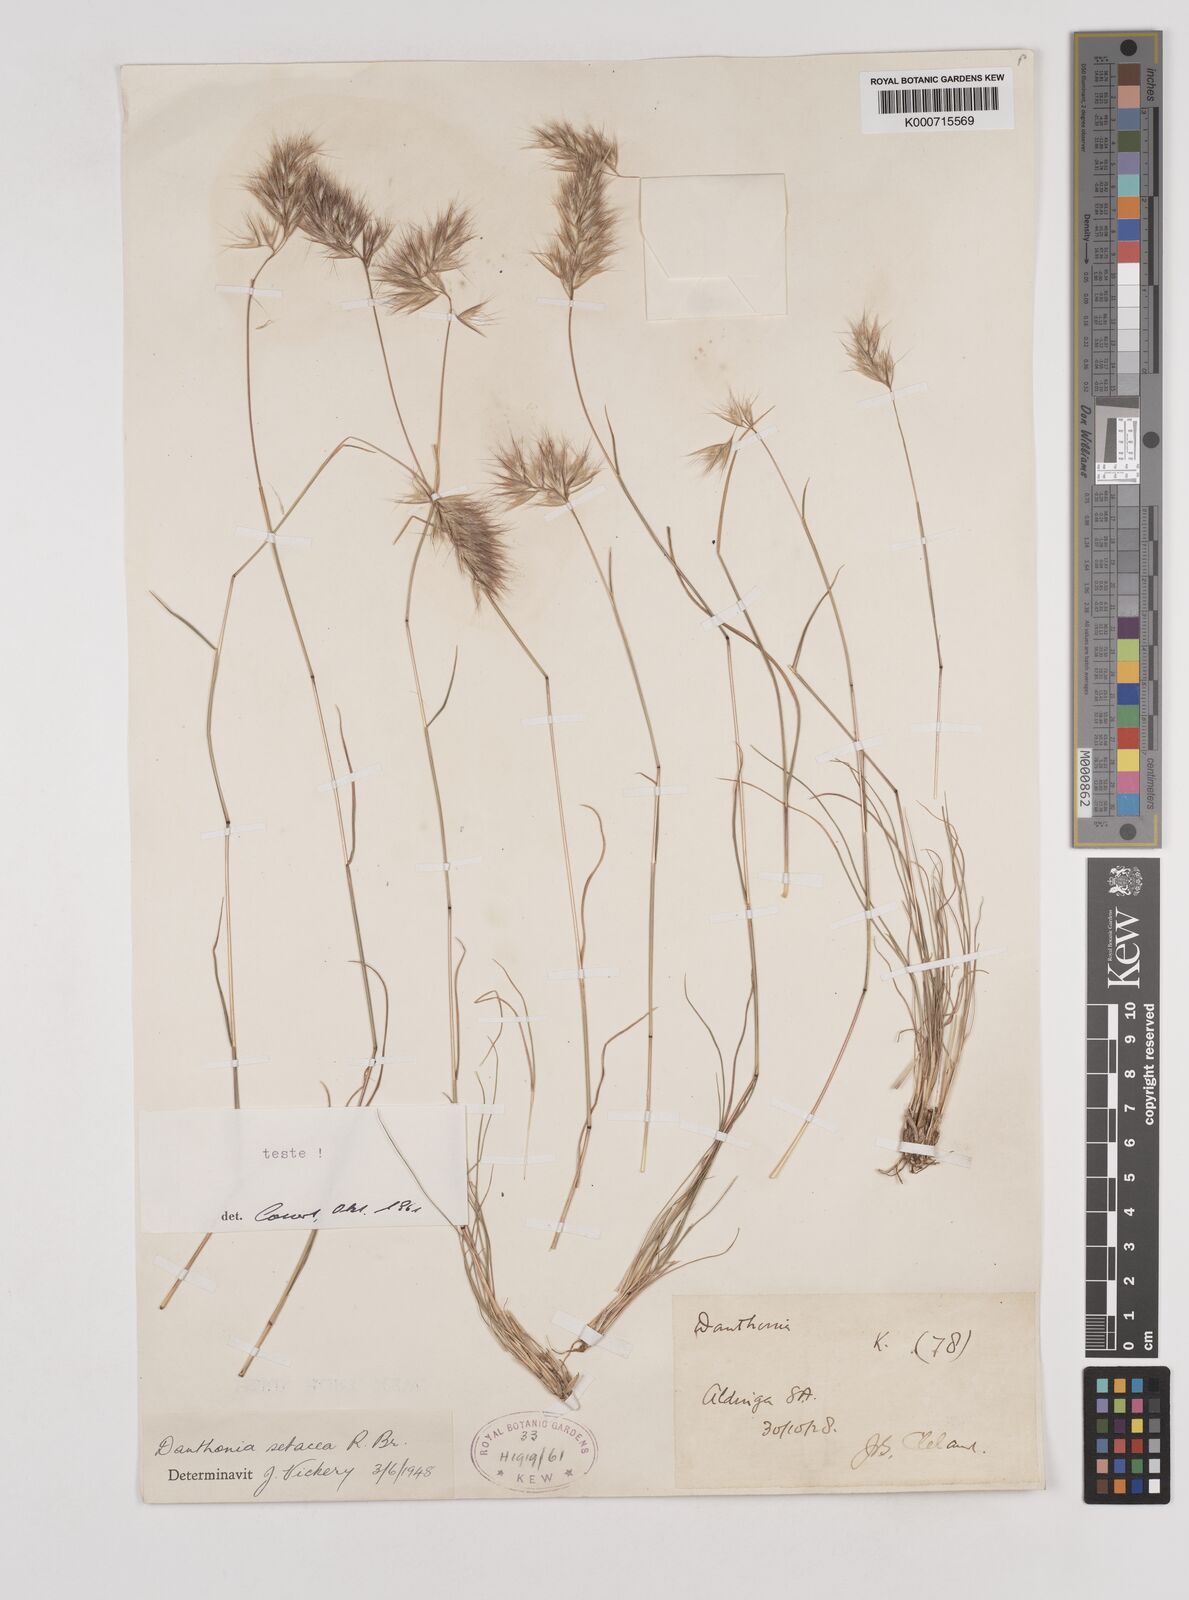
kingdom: Plantae
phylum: Tracheophyta
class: Liliopsida
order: Poales
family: Poaceae
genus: Rytidosperma
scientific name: Rytidosperma setaceum
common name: Small-flower wallaby grass
